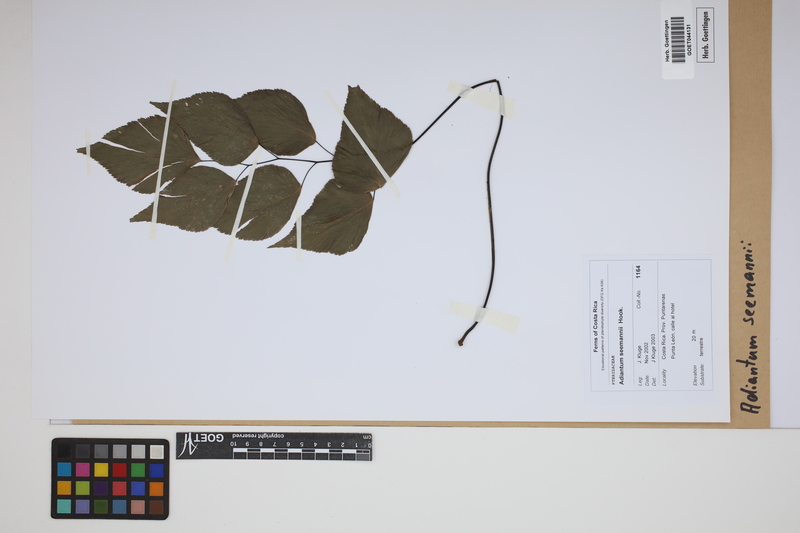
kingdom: Plantae
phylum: Tracheophyta
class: Polypodiopsida
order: Polypodiales
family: Pteridaceae
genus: Adiantum
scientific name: Adiantum seemannii
